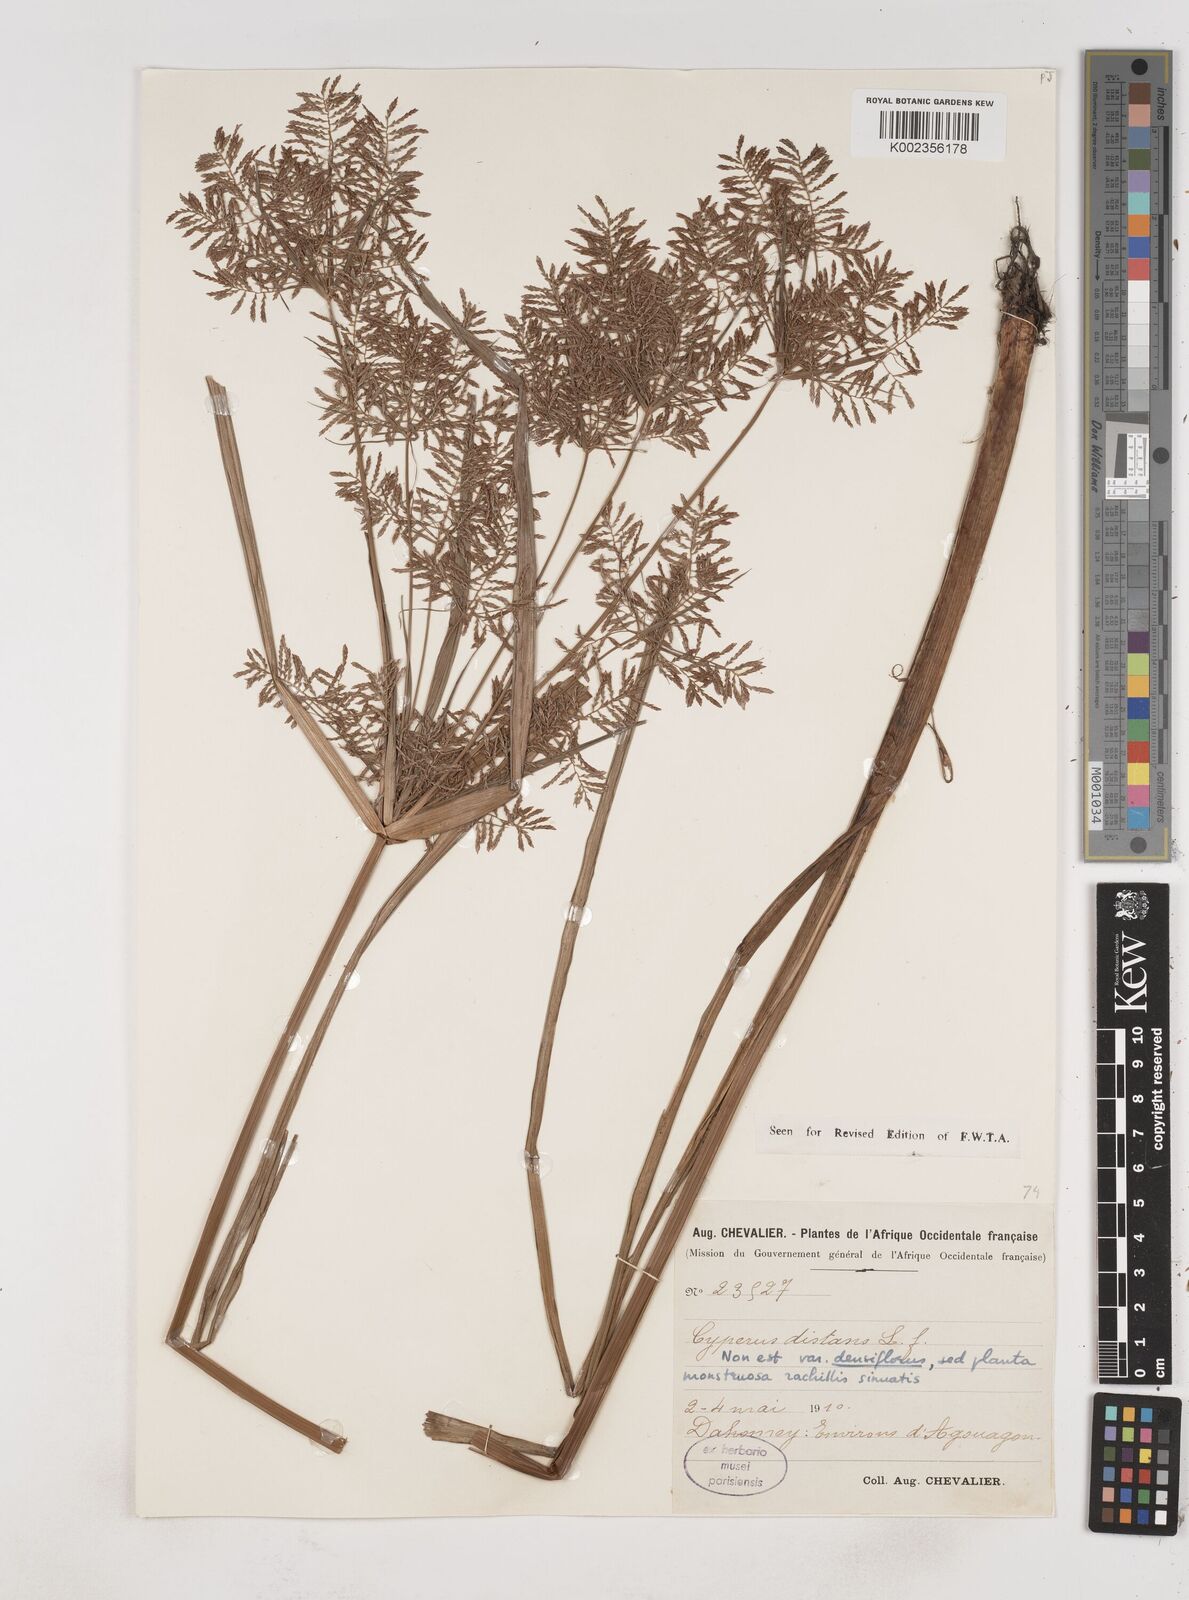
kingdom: Plantae
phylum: Tracheophyta
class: Liliopsida
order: Poales
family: Cyperaceae
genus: Cyperus
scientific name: Cyperus distans
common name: Slender cyperus
